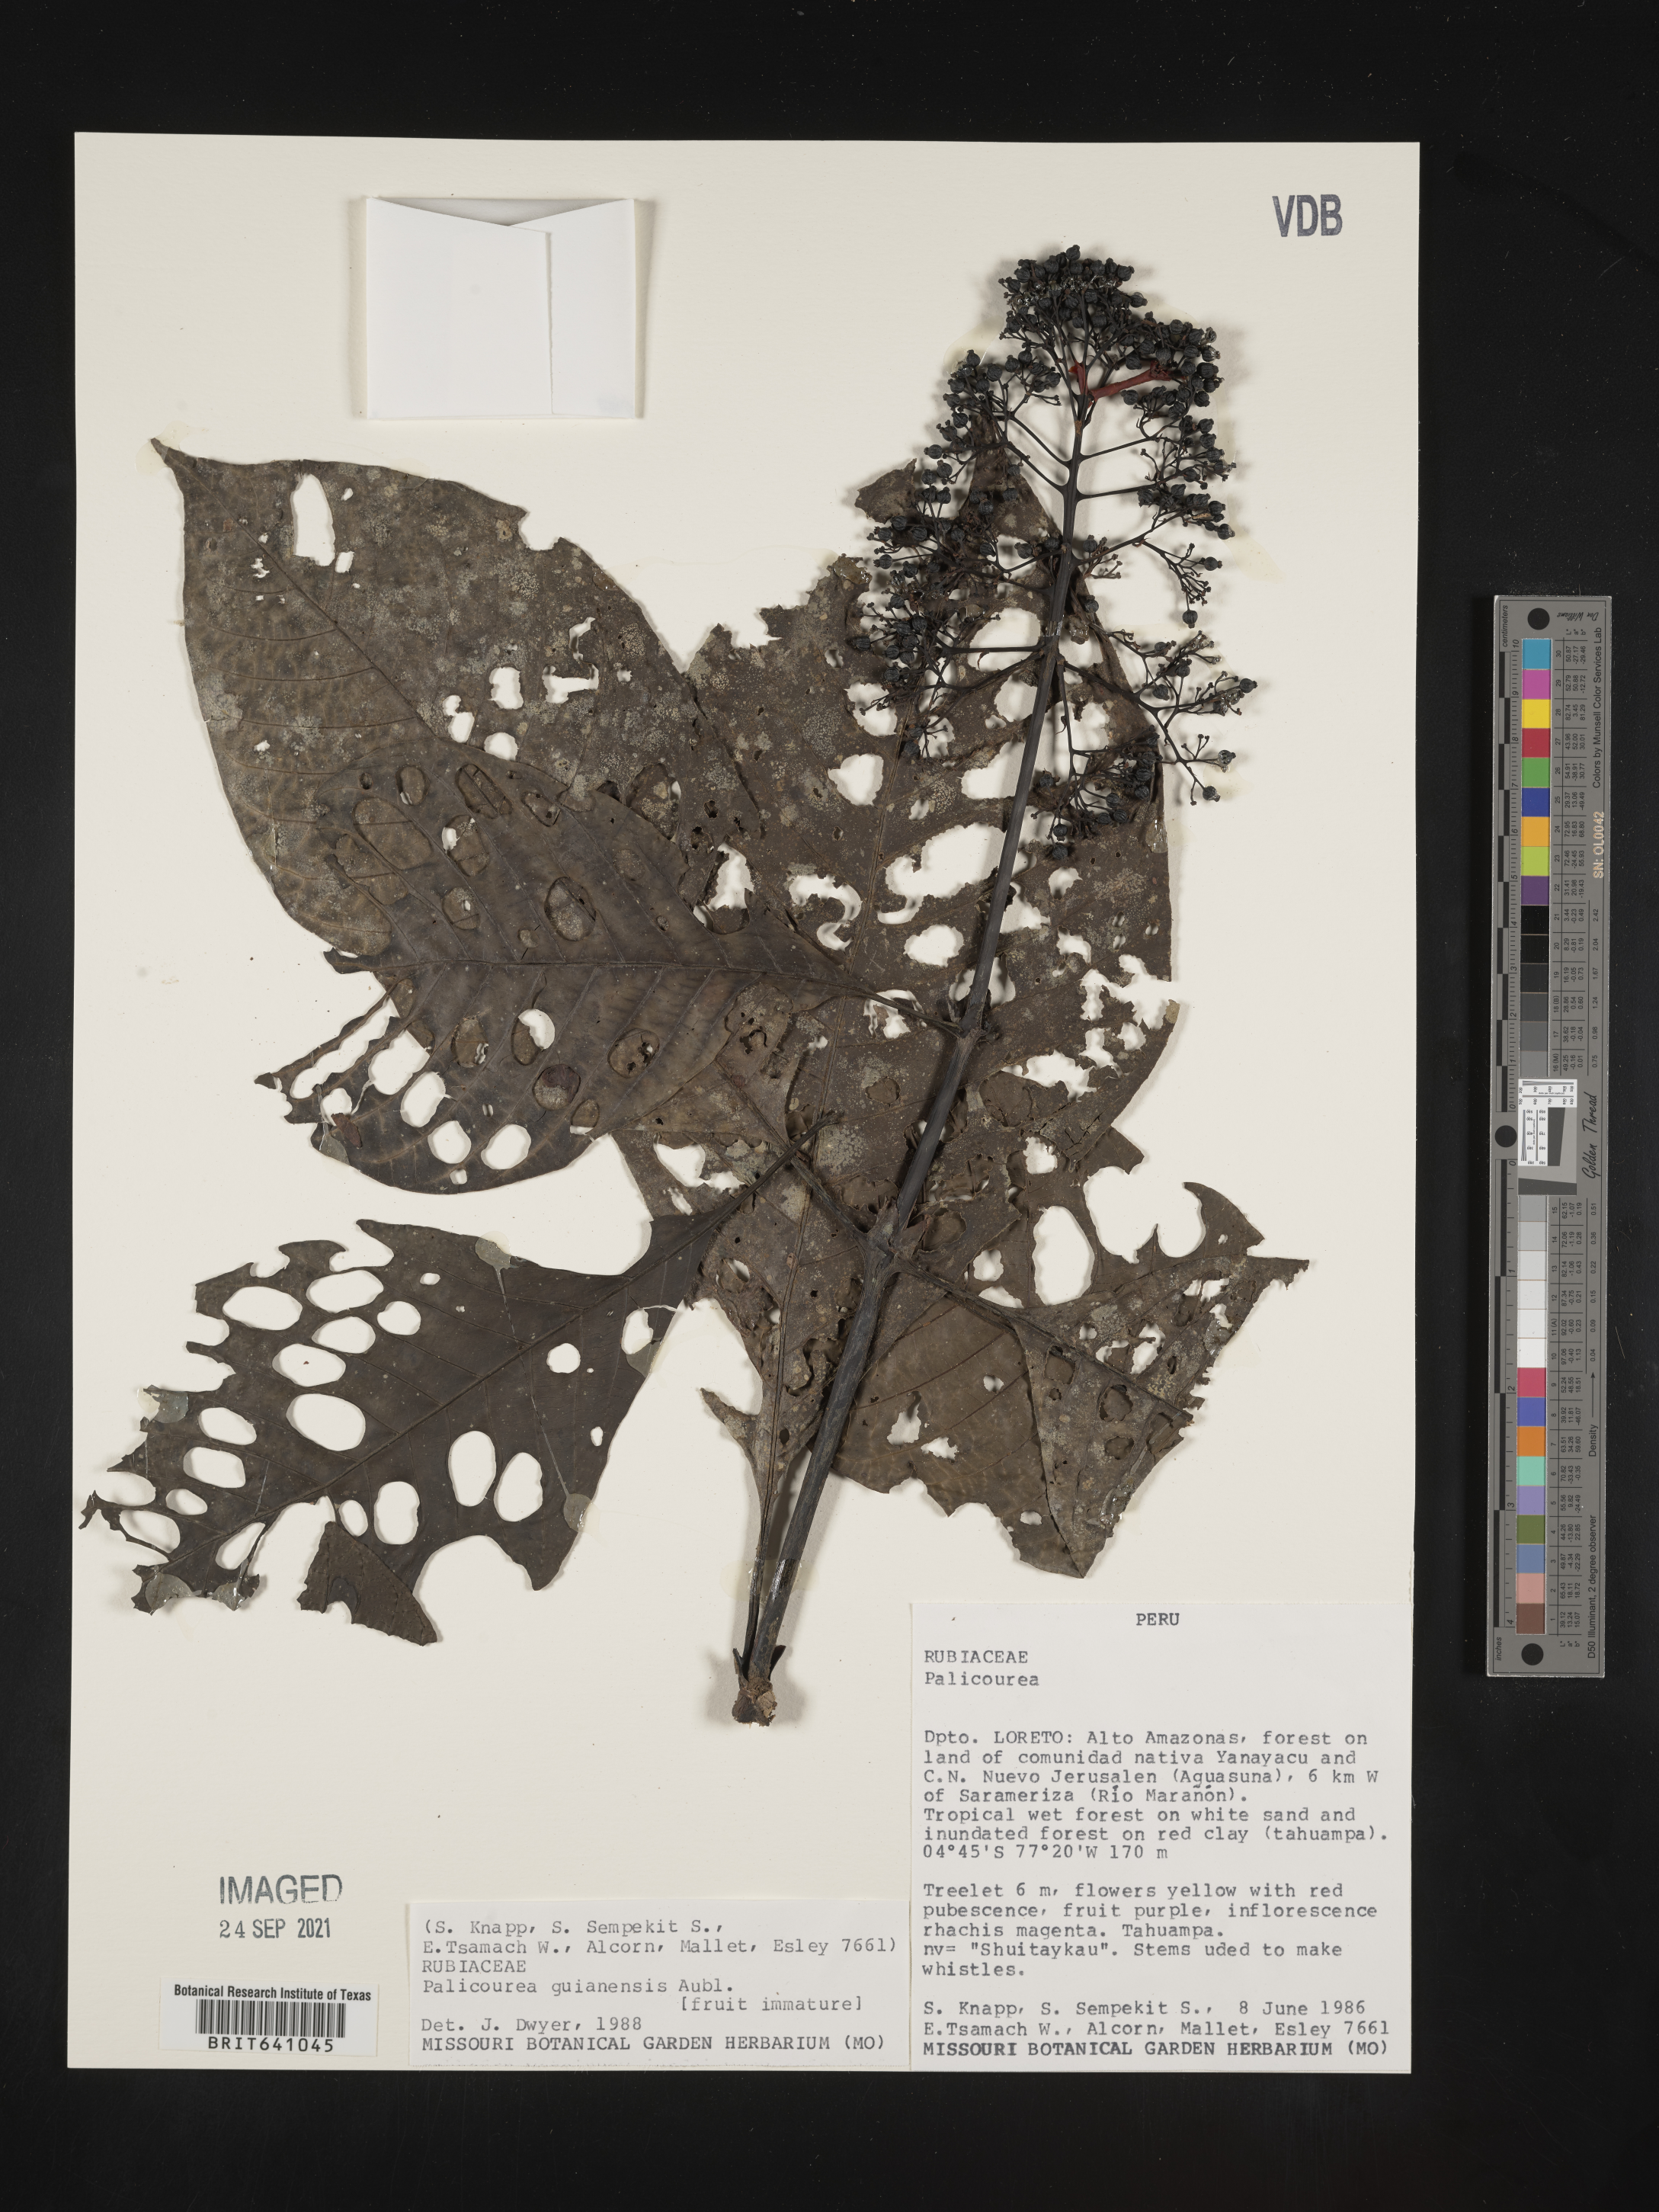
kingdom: Plantae
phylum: Tracheophyta
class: Magnoliopsida
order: Gentianales
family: Rubiaceae
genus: Palicourea
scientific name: Palicourea
